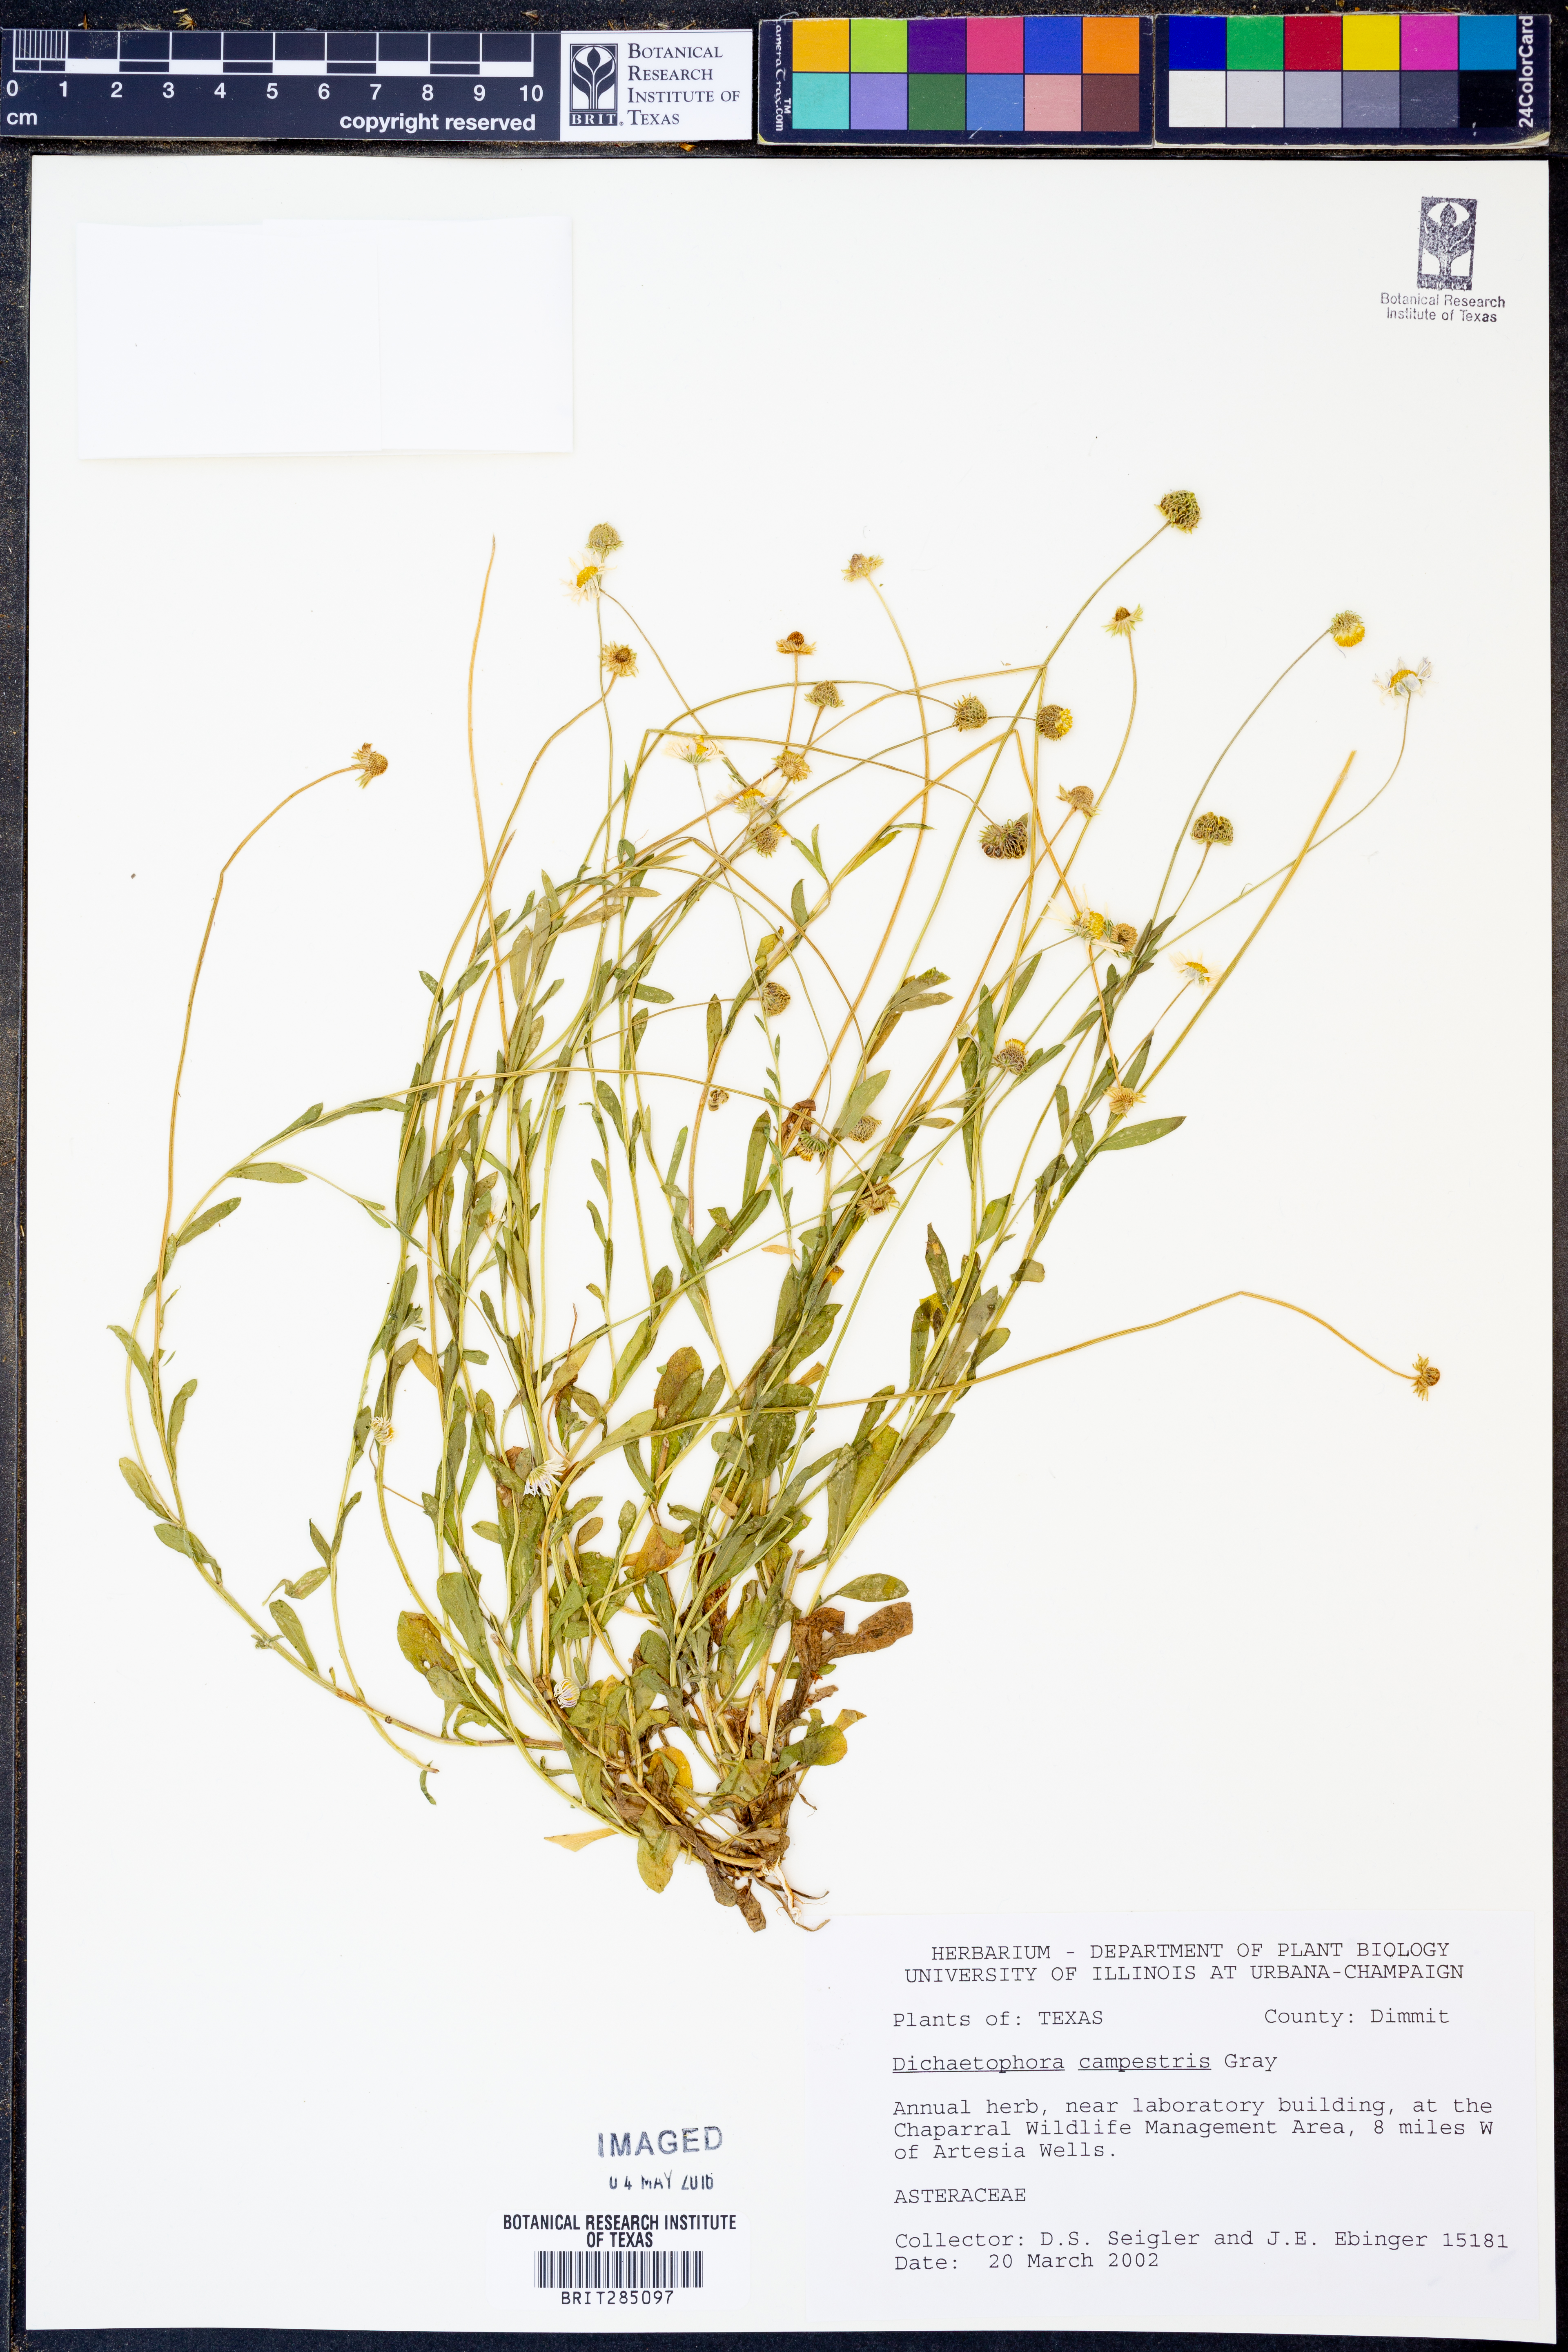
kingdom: Plantae
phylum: Tracheophyta
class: Magnoliopsida
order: Asterales
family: Asteraceae
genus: Dichaetophora
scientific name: Dichaetophora campestris
